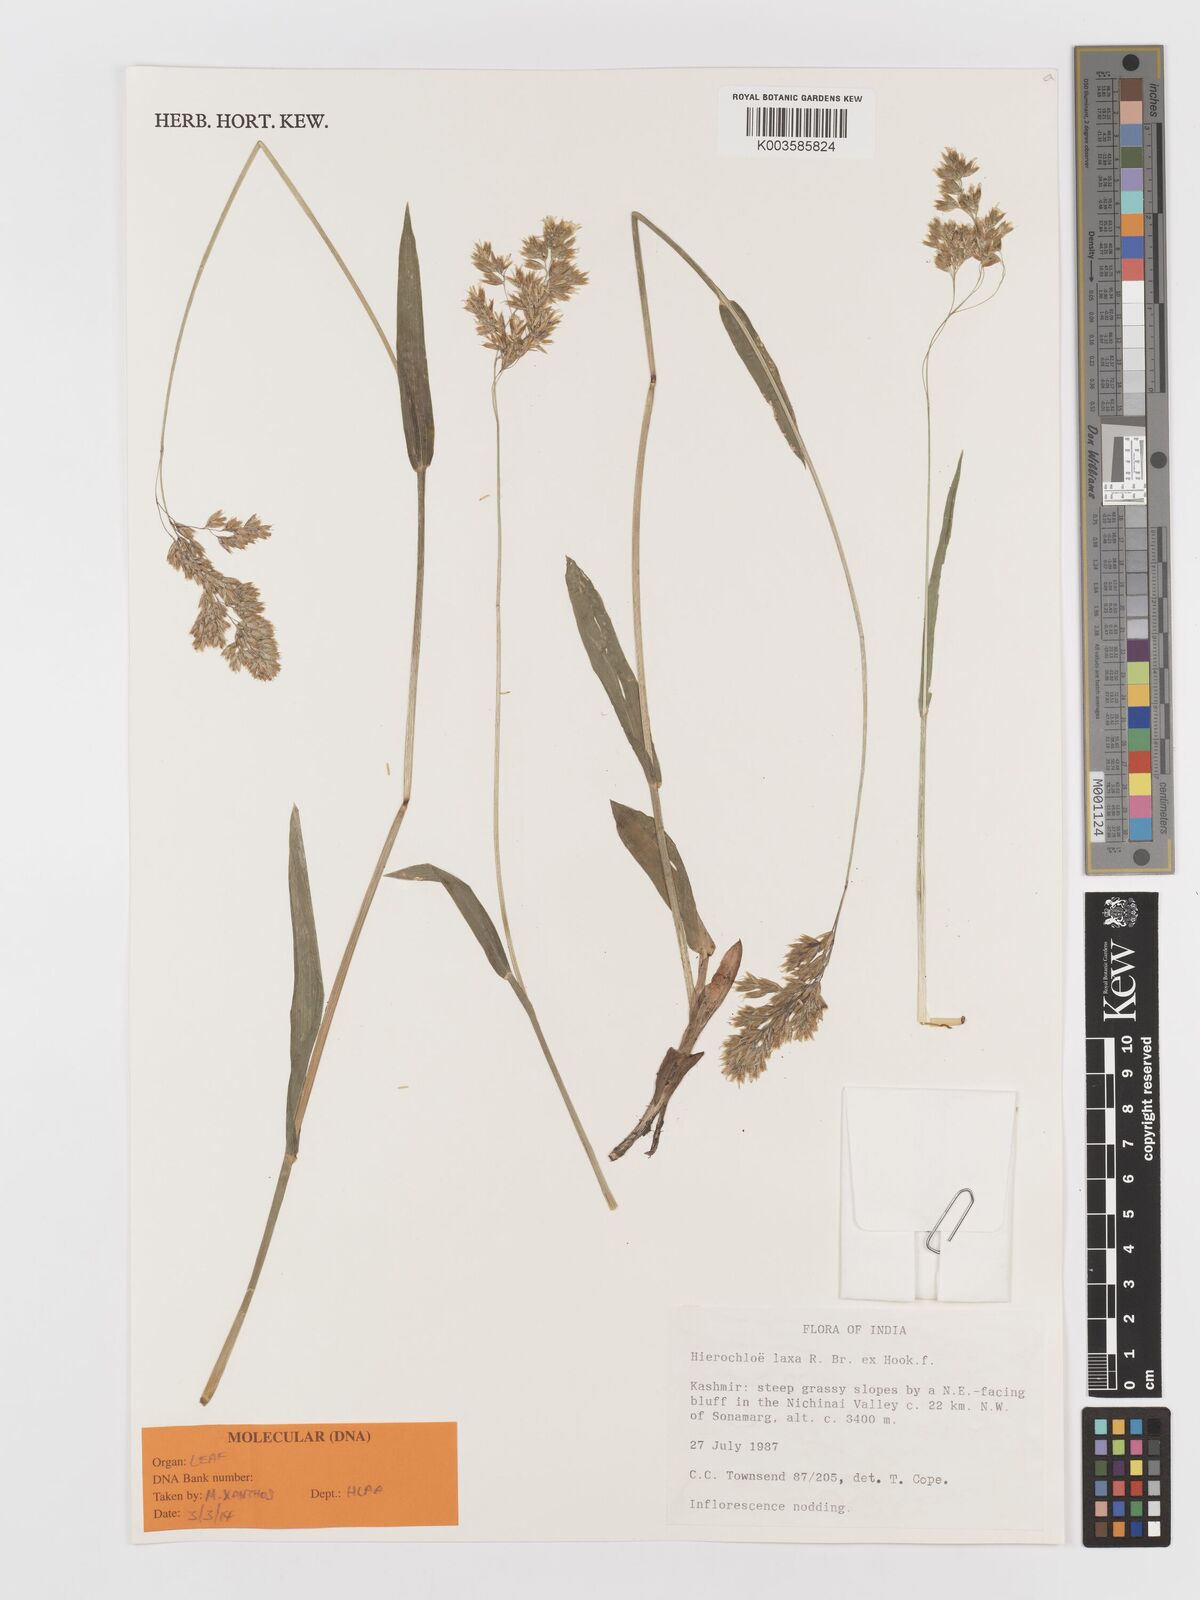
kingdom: Plantae
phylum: Tracheophyta
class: Liliopsida
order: Poales
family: Poaceae
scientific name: Poaceae
